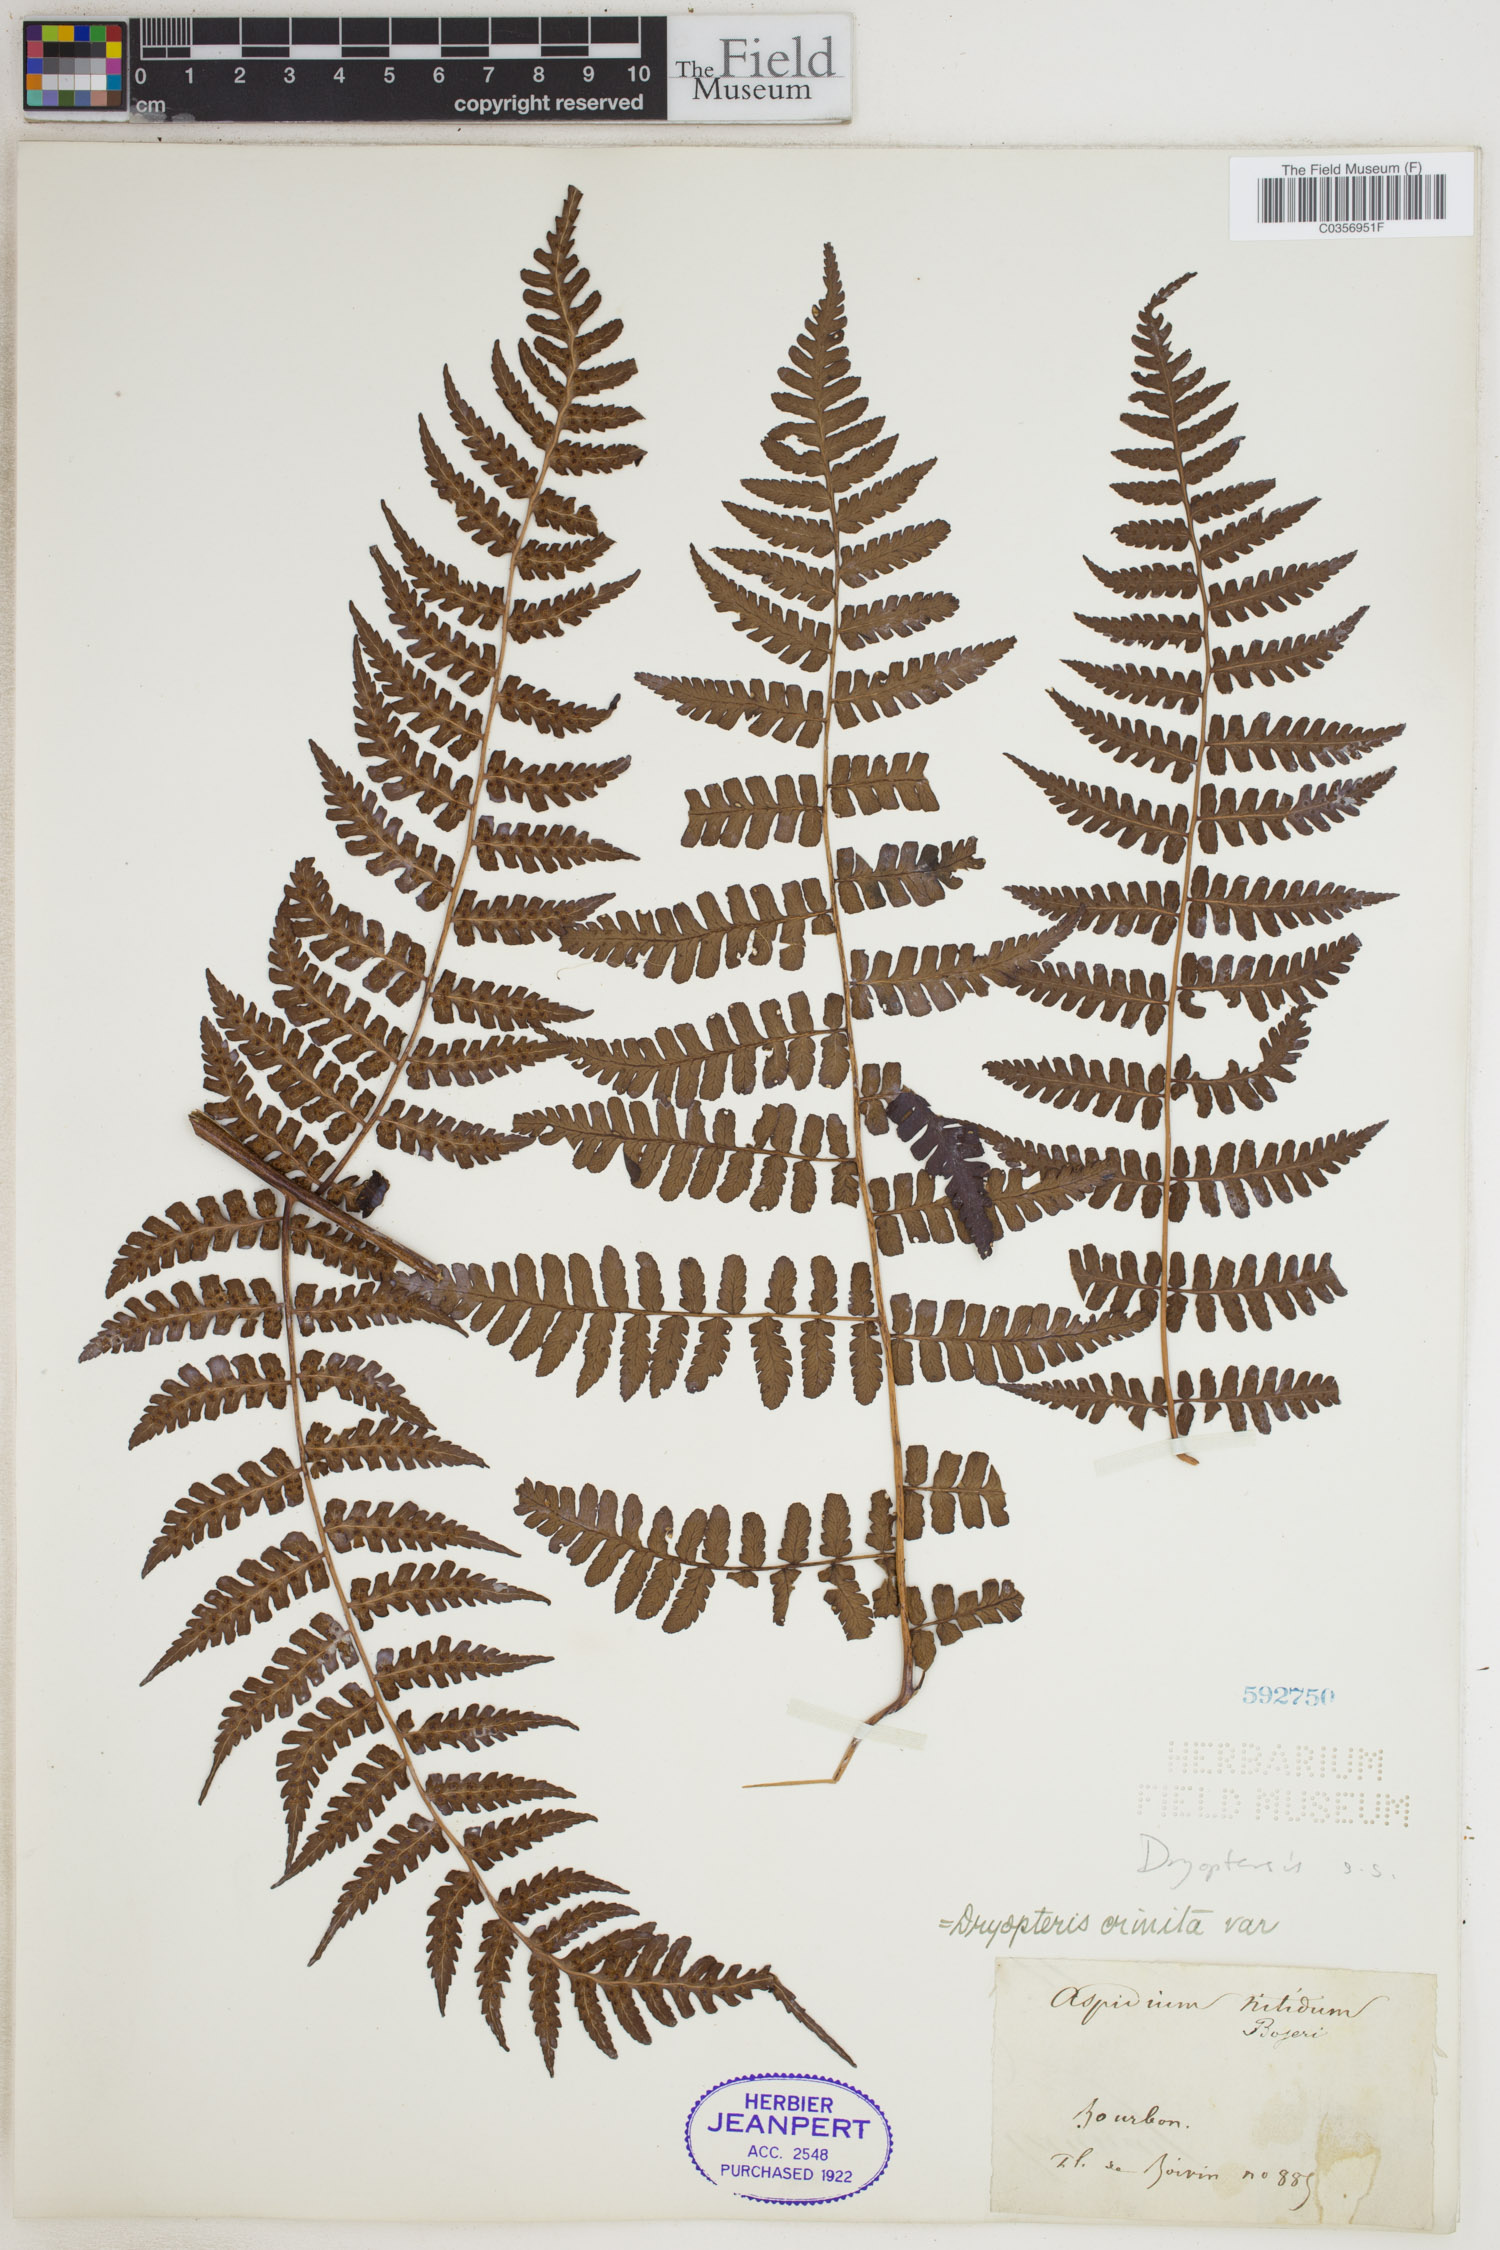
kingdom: Plantae
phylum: Tracheophyta
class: Polypodiopsida
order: Polypodiales
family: Dryopteridaceae
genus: Dryopteris
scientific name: Dryopteris
